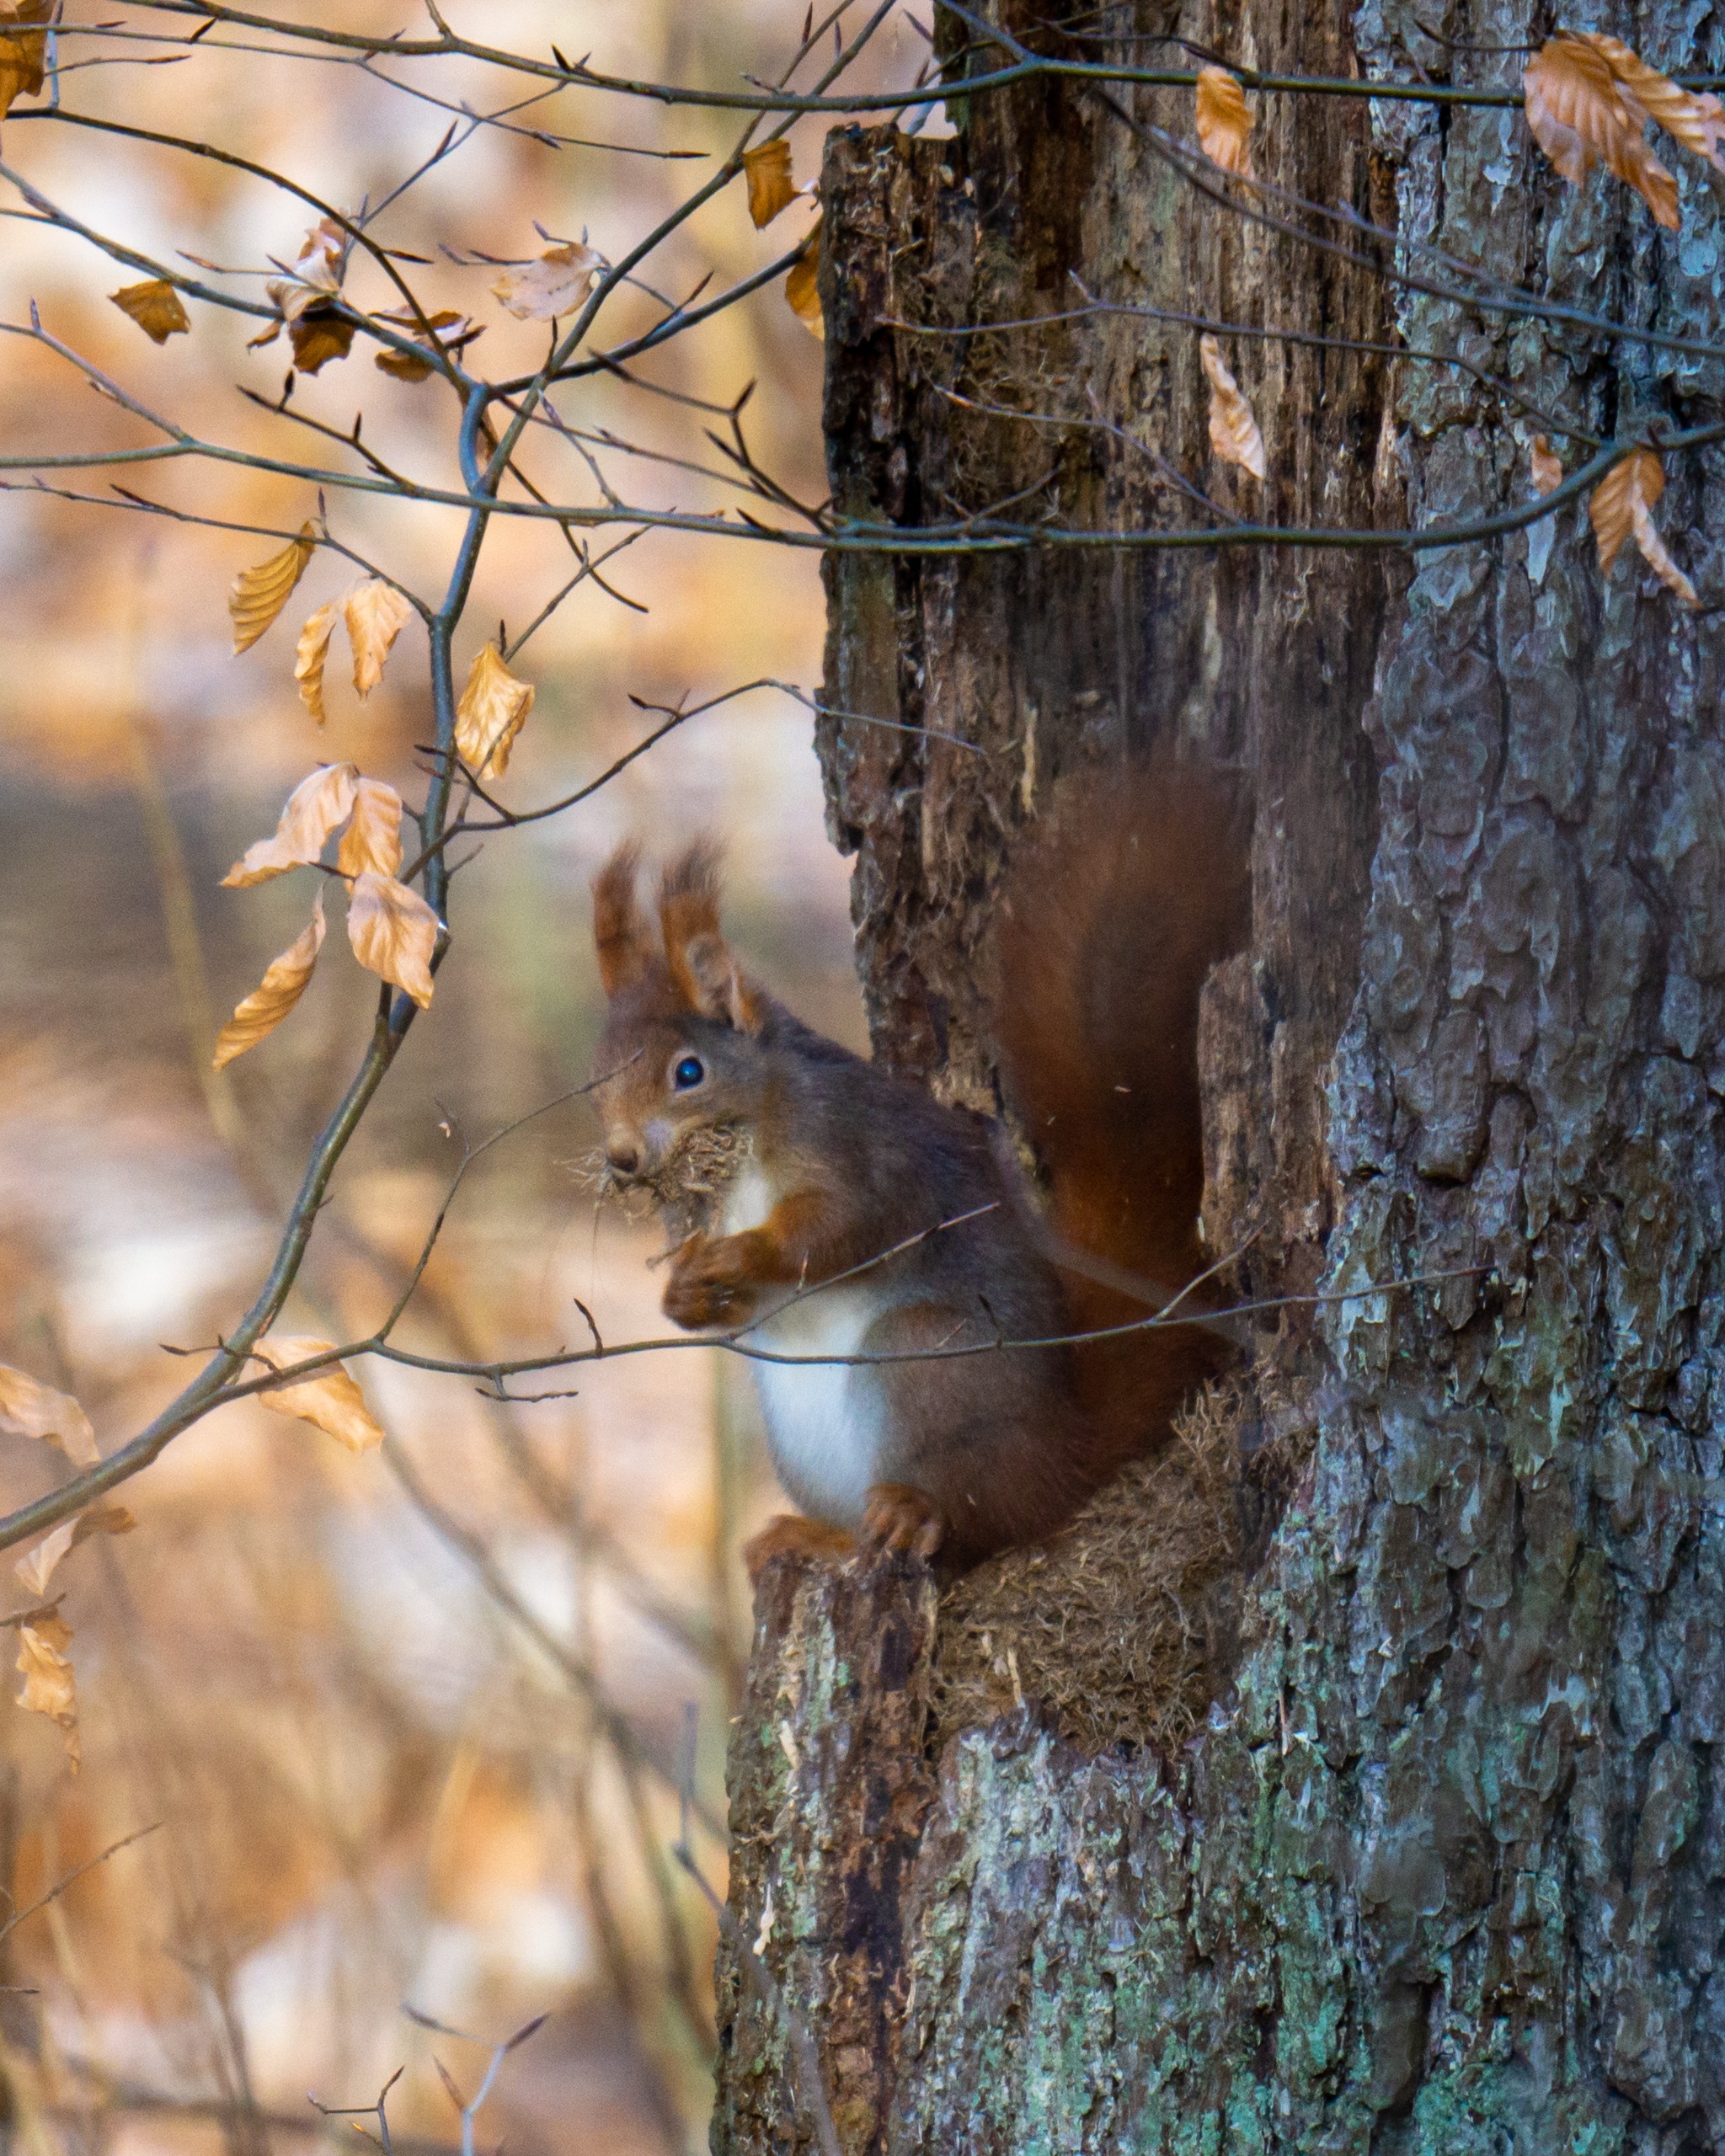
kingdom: Animalia
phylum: Chordata
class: Mammalia
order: Rodentia
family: Sciuridae
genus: Sciurus
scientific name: Sciurus vulgaris
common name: Egern
